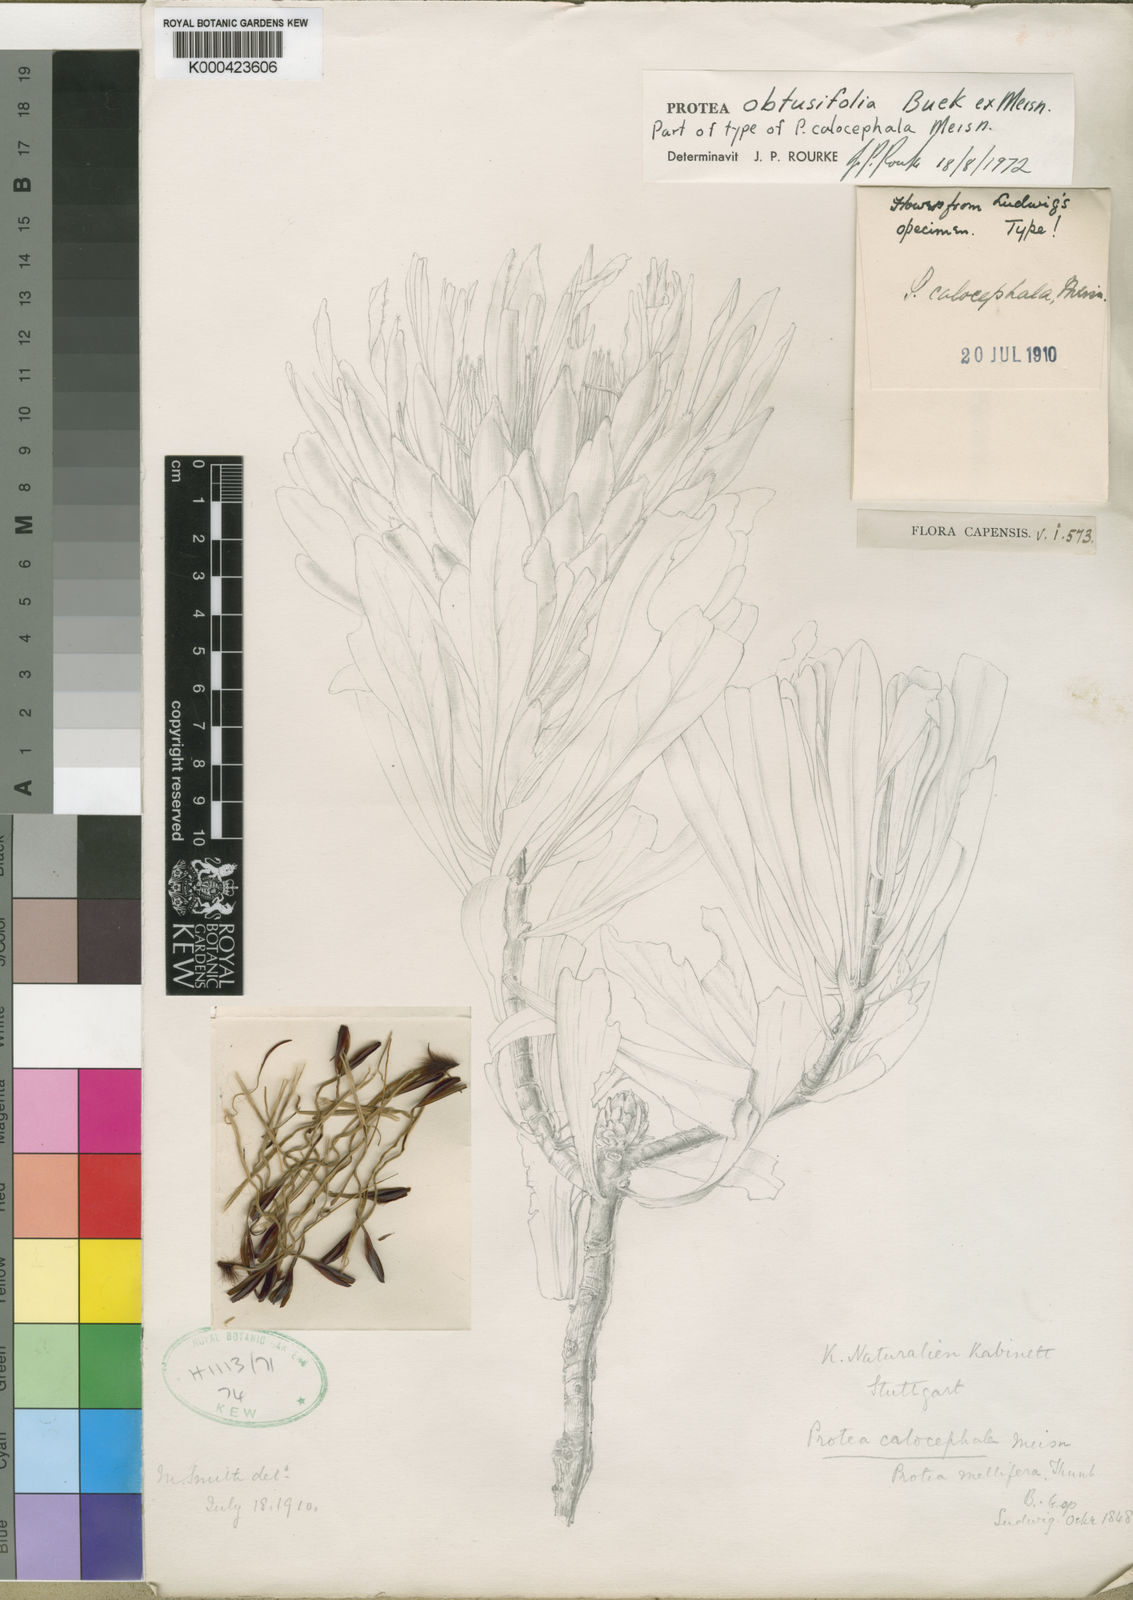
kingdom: Plantae
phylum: Tracheophyta
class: Magnoliopsida
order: Proteales
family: Proteaceae
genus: Protea
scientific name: Protea obtusifolia
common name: Bredasdorp sugarbush
